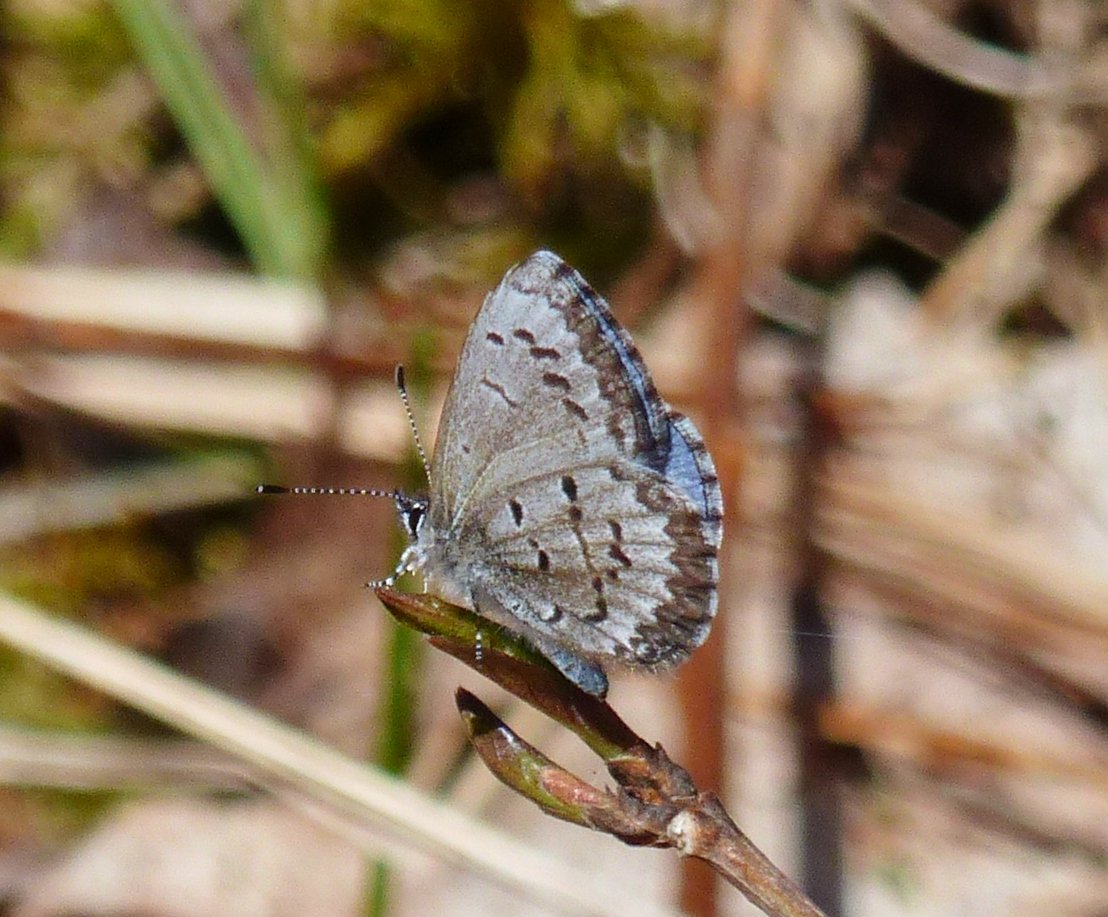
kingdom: Animalia
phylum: Arthropoda
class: Insecta
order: Lepidoptera
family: Lycaenidae
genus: Celastrina
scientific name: Celastrina lucia
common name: Northern Spring Azure
